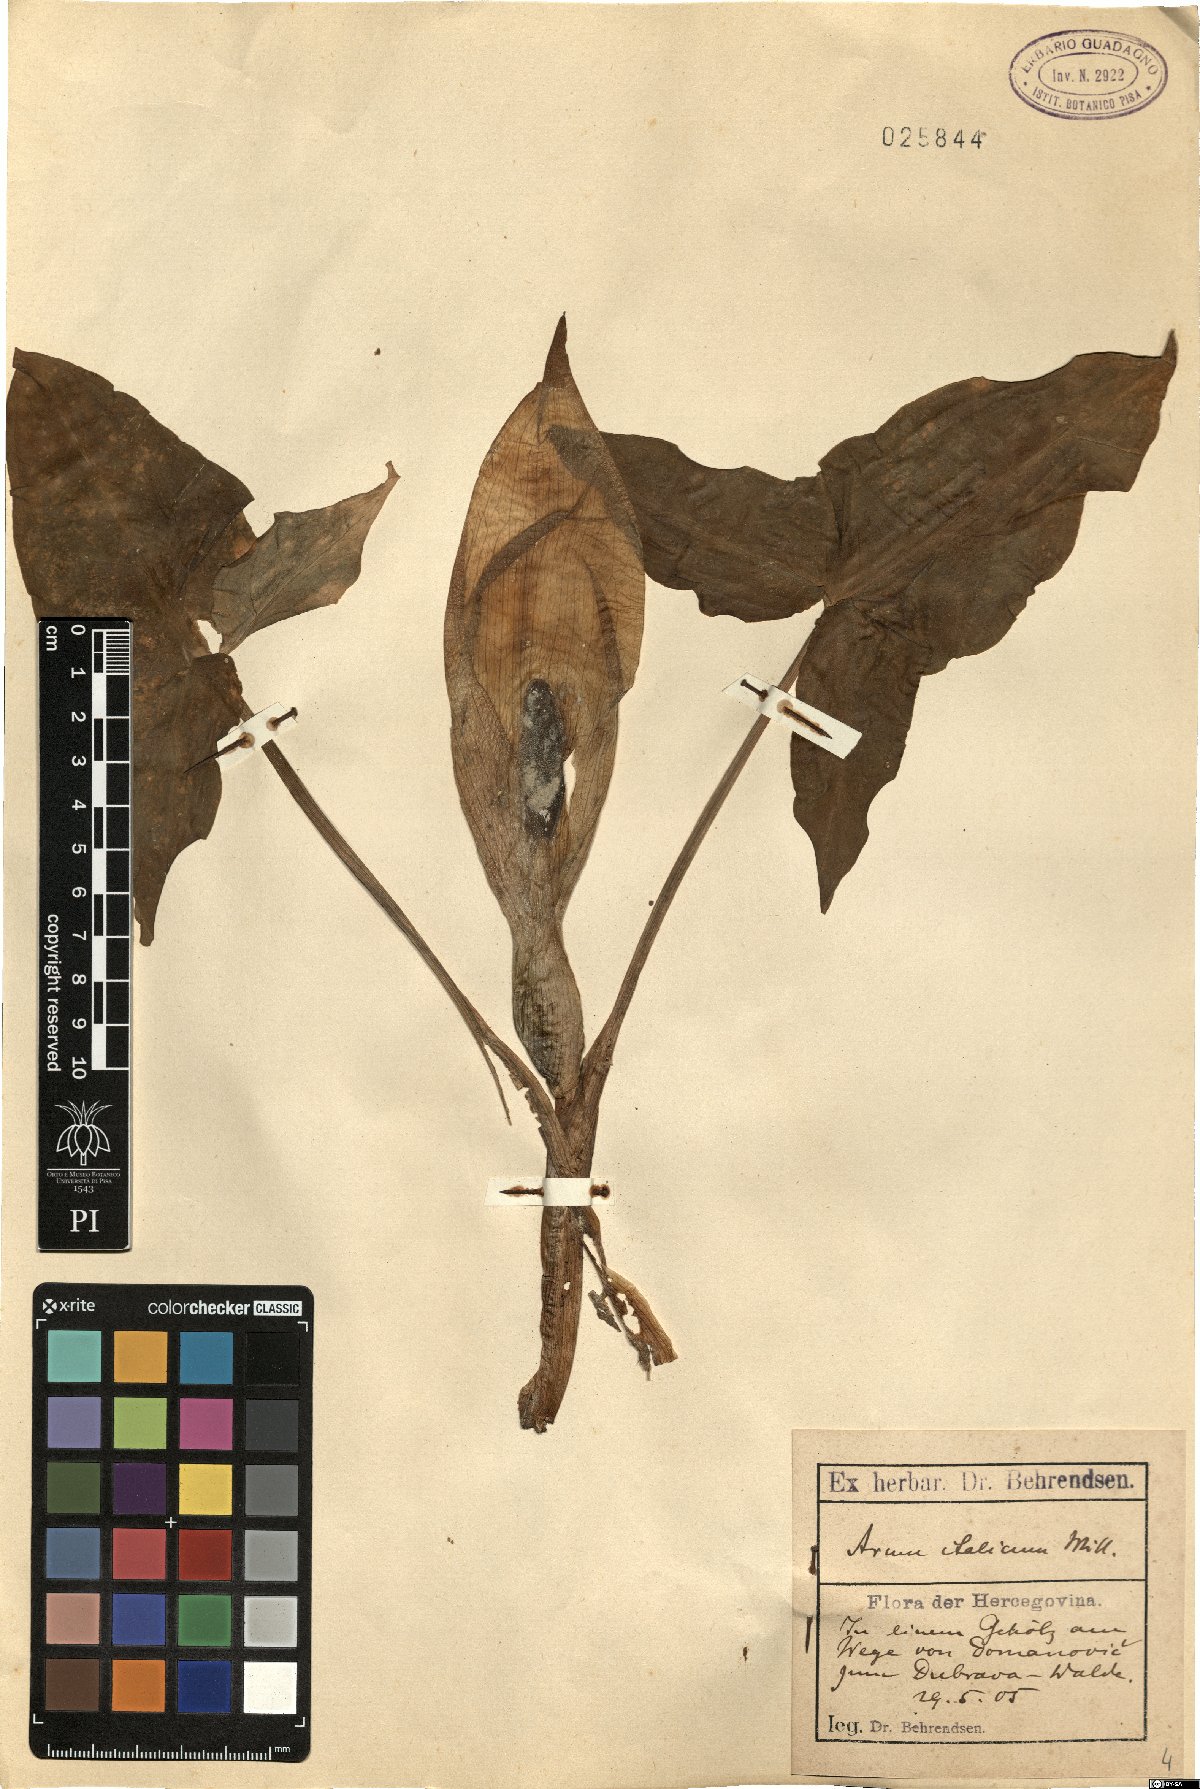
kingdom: Plantae
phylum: Tracheophyta
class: Liliopsida
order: Alismatales
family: Araceae
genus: Arum
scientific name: Arum italicum
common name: Italian lords-and-ladies
